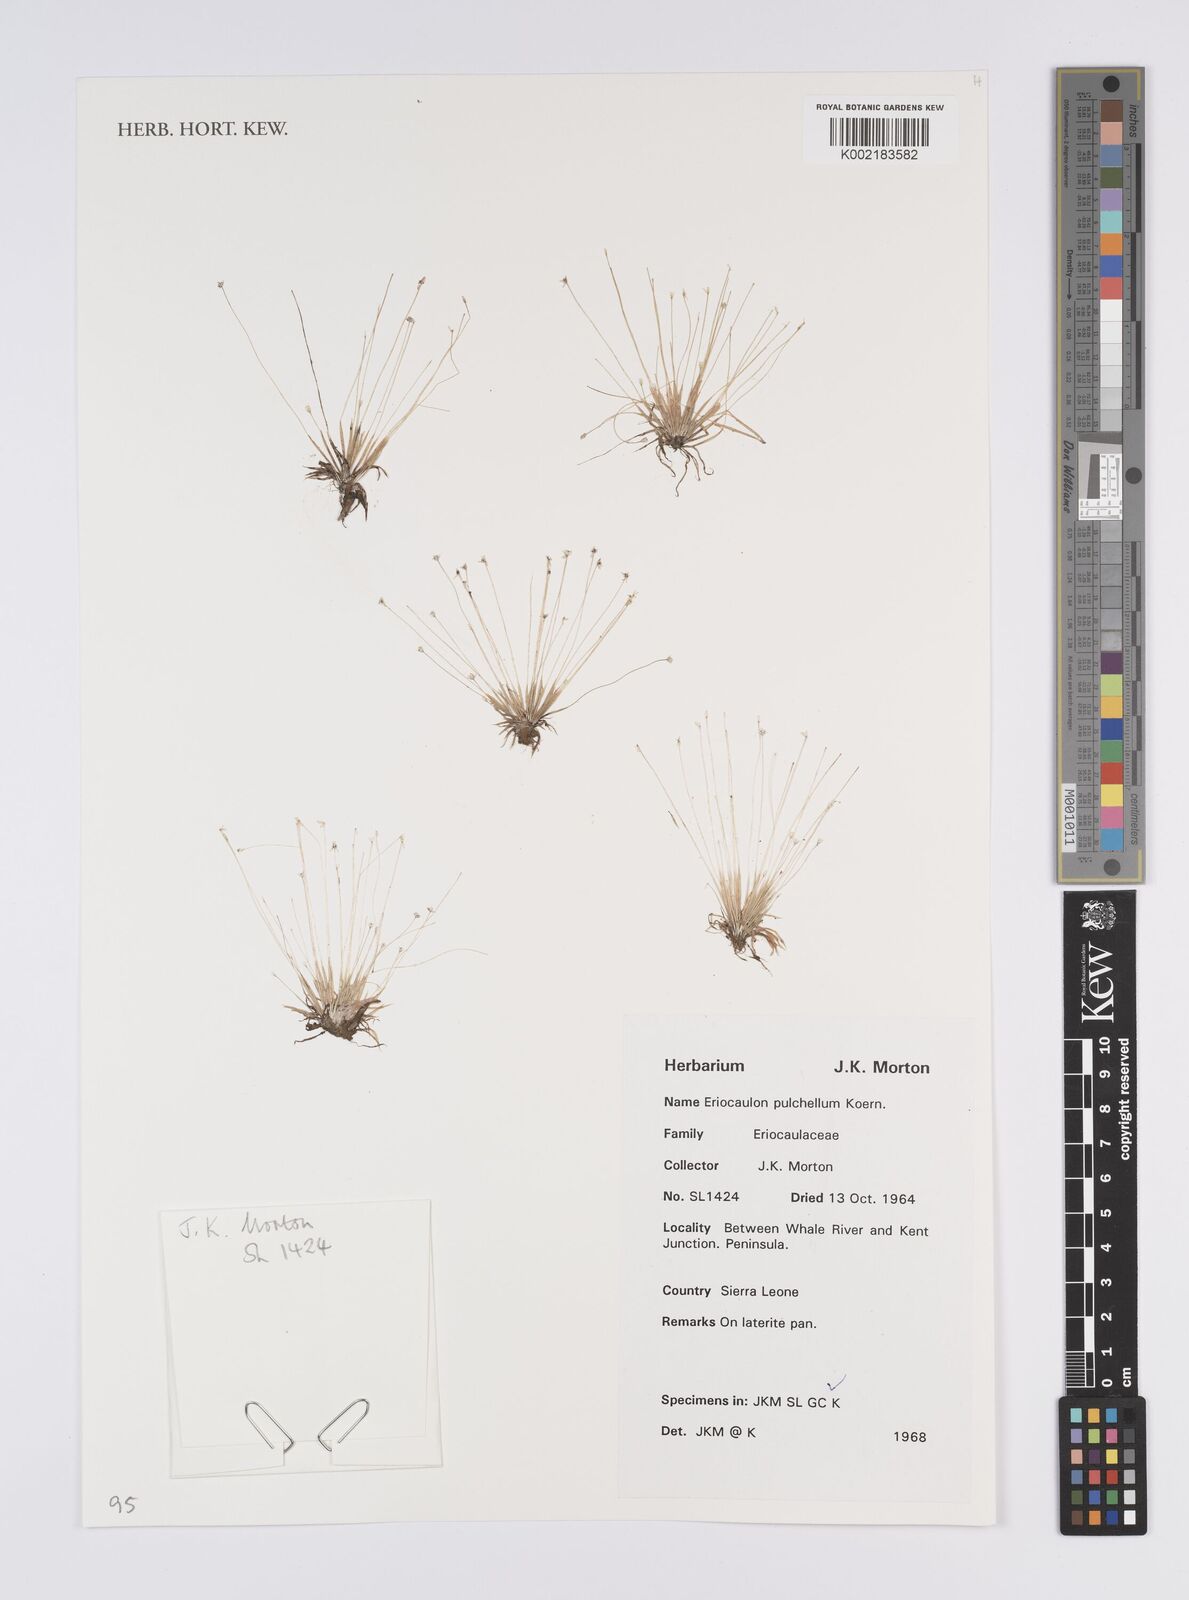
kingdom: Plantae
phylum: Tracheophyta
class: Liliopsida
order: Poales
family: Eriocaulaceae
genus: Eriocaulon
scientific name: Eriocaulon pulchellum
